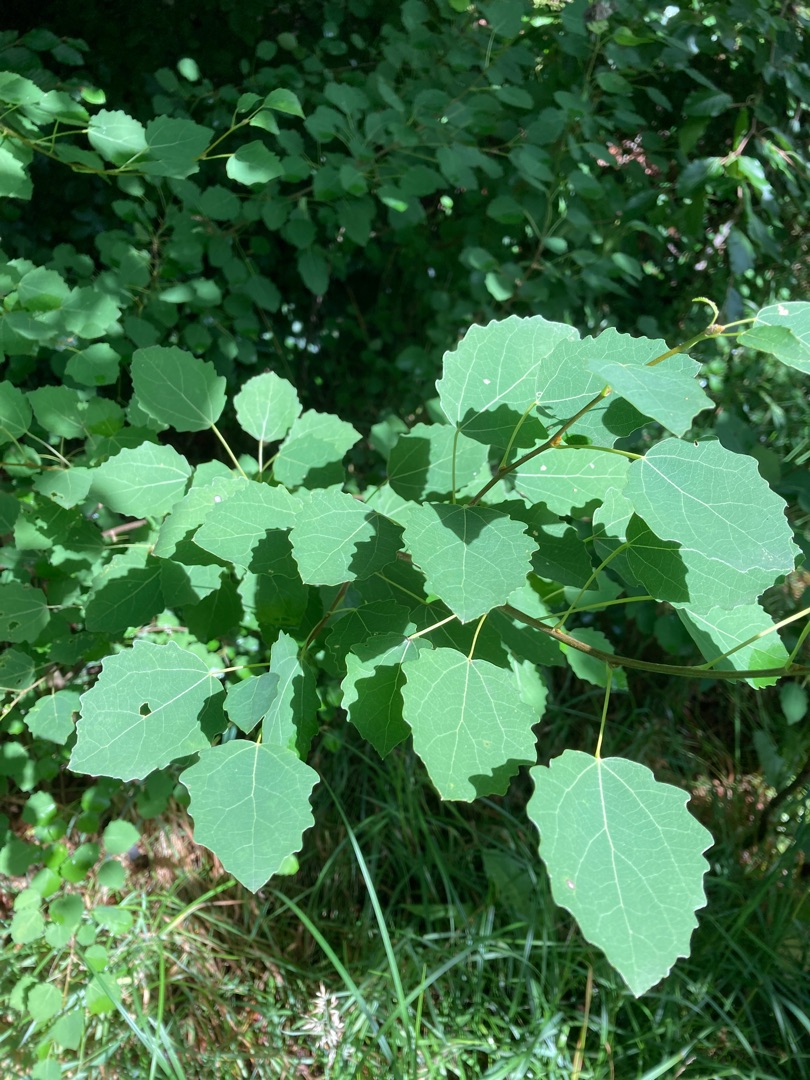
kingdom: Plantae
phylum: Tracheophyta
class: Magnoliopsida
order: Malpighiales
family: Salicaceae
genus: Populus
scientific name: Populus tremula
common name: Bævreasp
